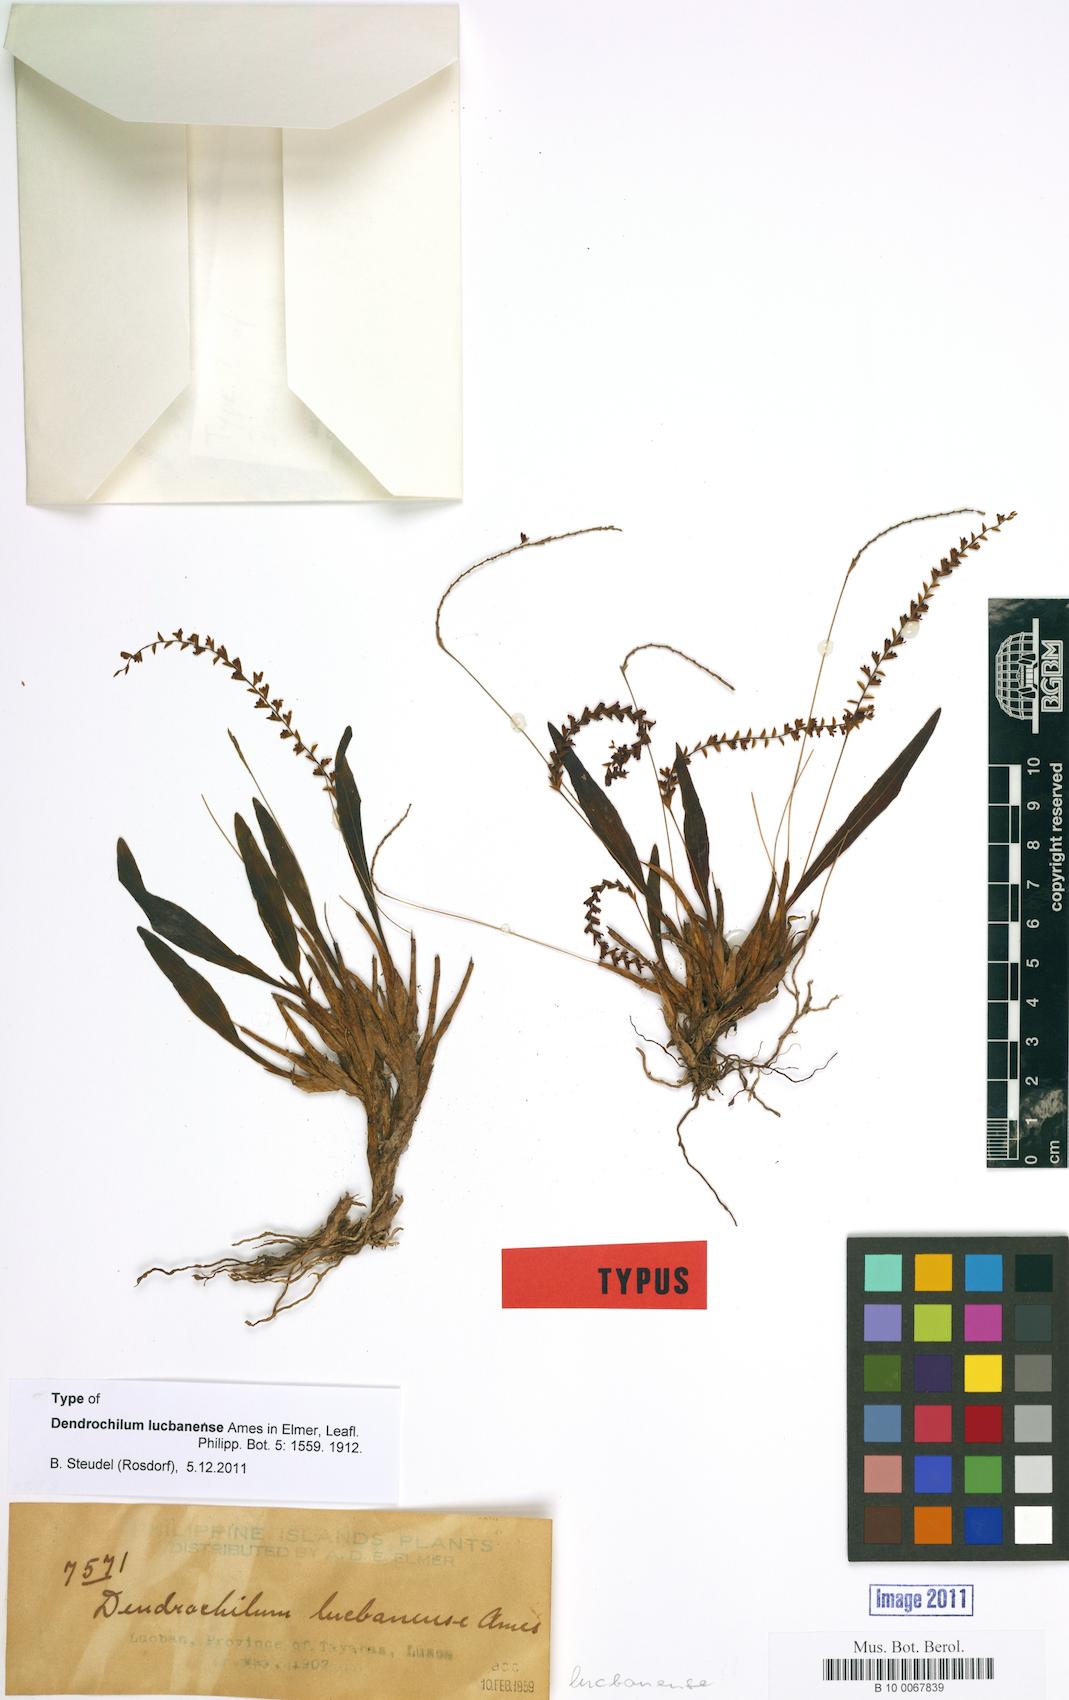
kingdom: Plantae
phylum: Tracheophyta
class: Liliopsida
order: Asparagales
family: Orchidaceae
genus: Coelogyne
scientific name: Coelogyne lucbanensis
